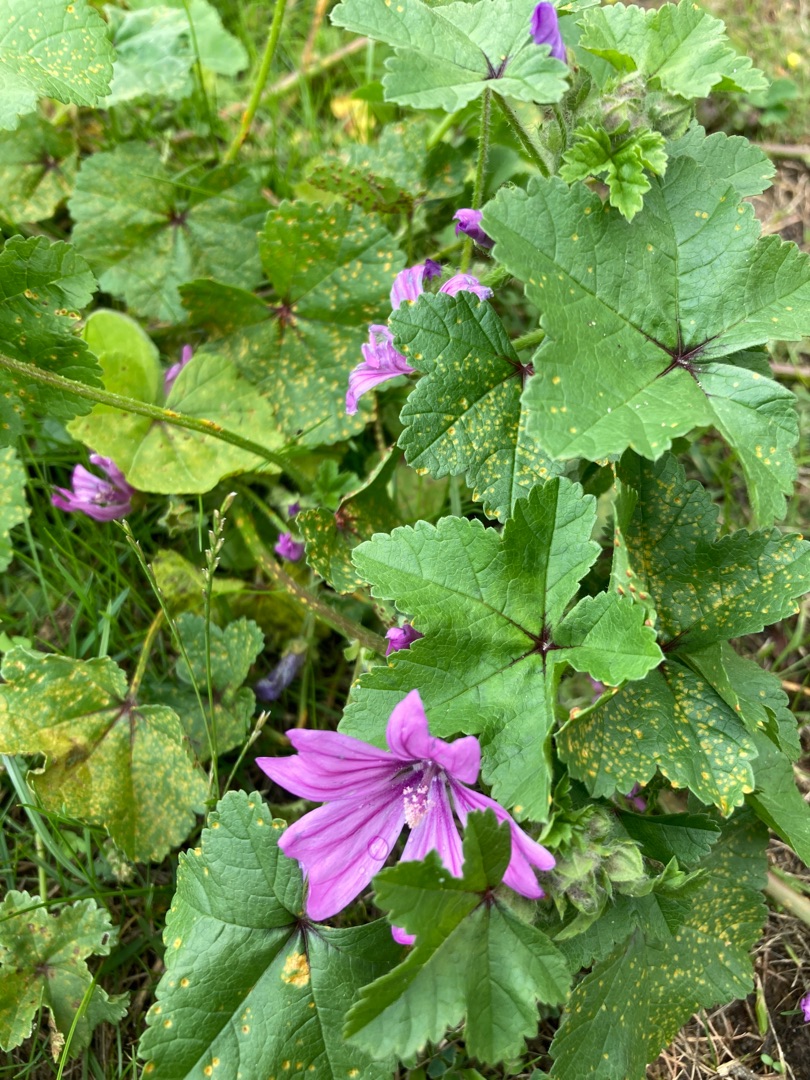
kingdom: Plantae
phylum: Tracheophyta
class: Magnoliopsida
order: Malvales
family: Malvaceae
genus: Malva
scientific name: Malva sylvestris
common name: Almindelig katost
